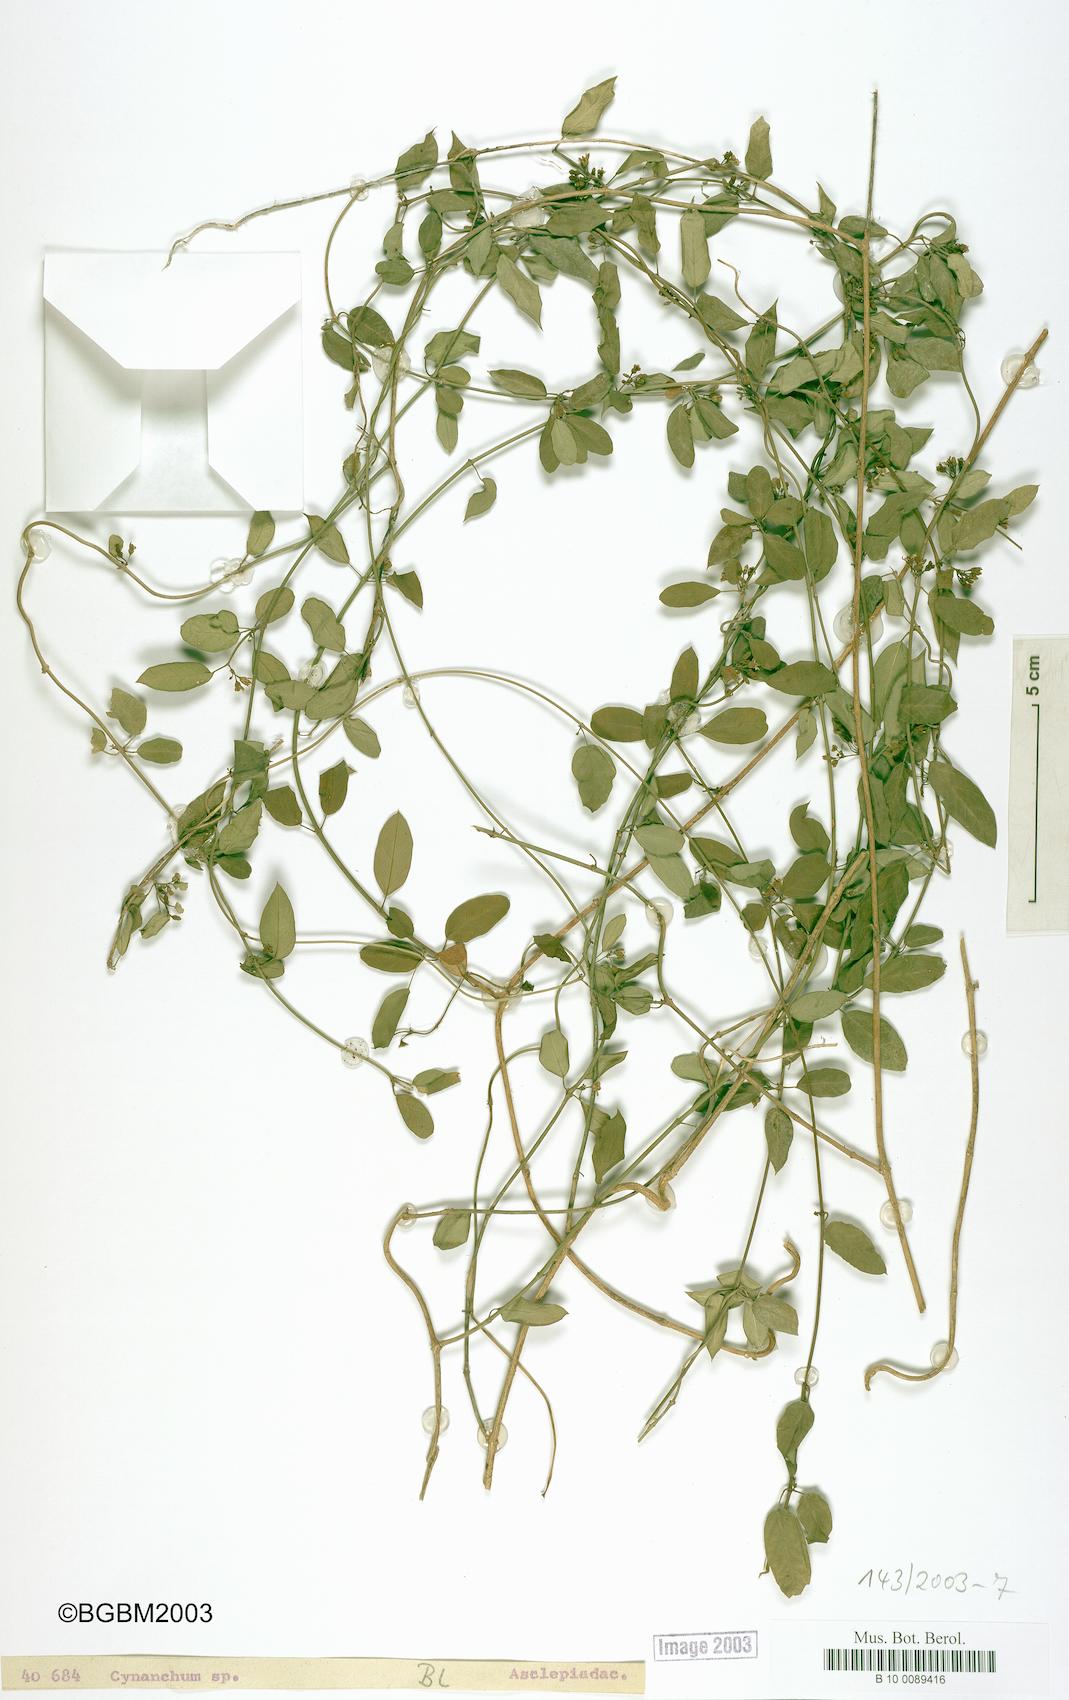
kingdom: Plantae
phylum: Tracheophyta
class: Magnoliopsida
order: Gentianales
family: Apocynaceae
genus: Metastelma
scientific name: Metastelma bahamense
